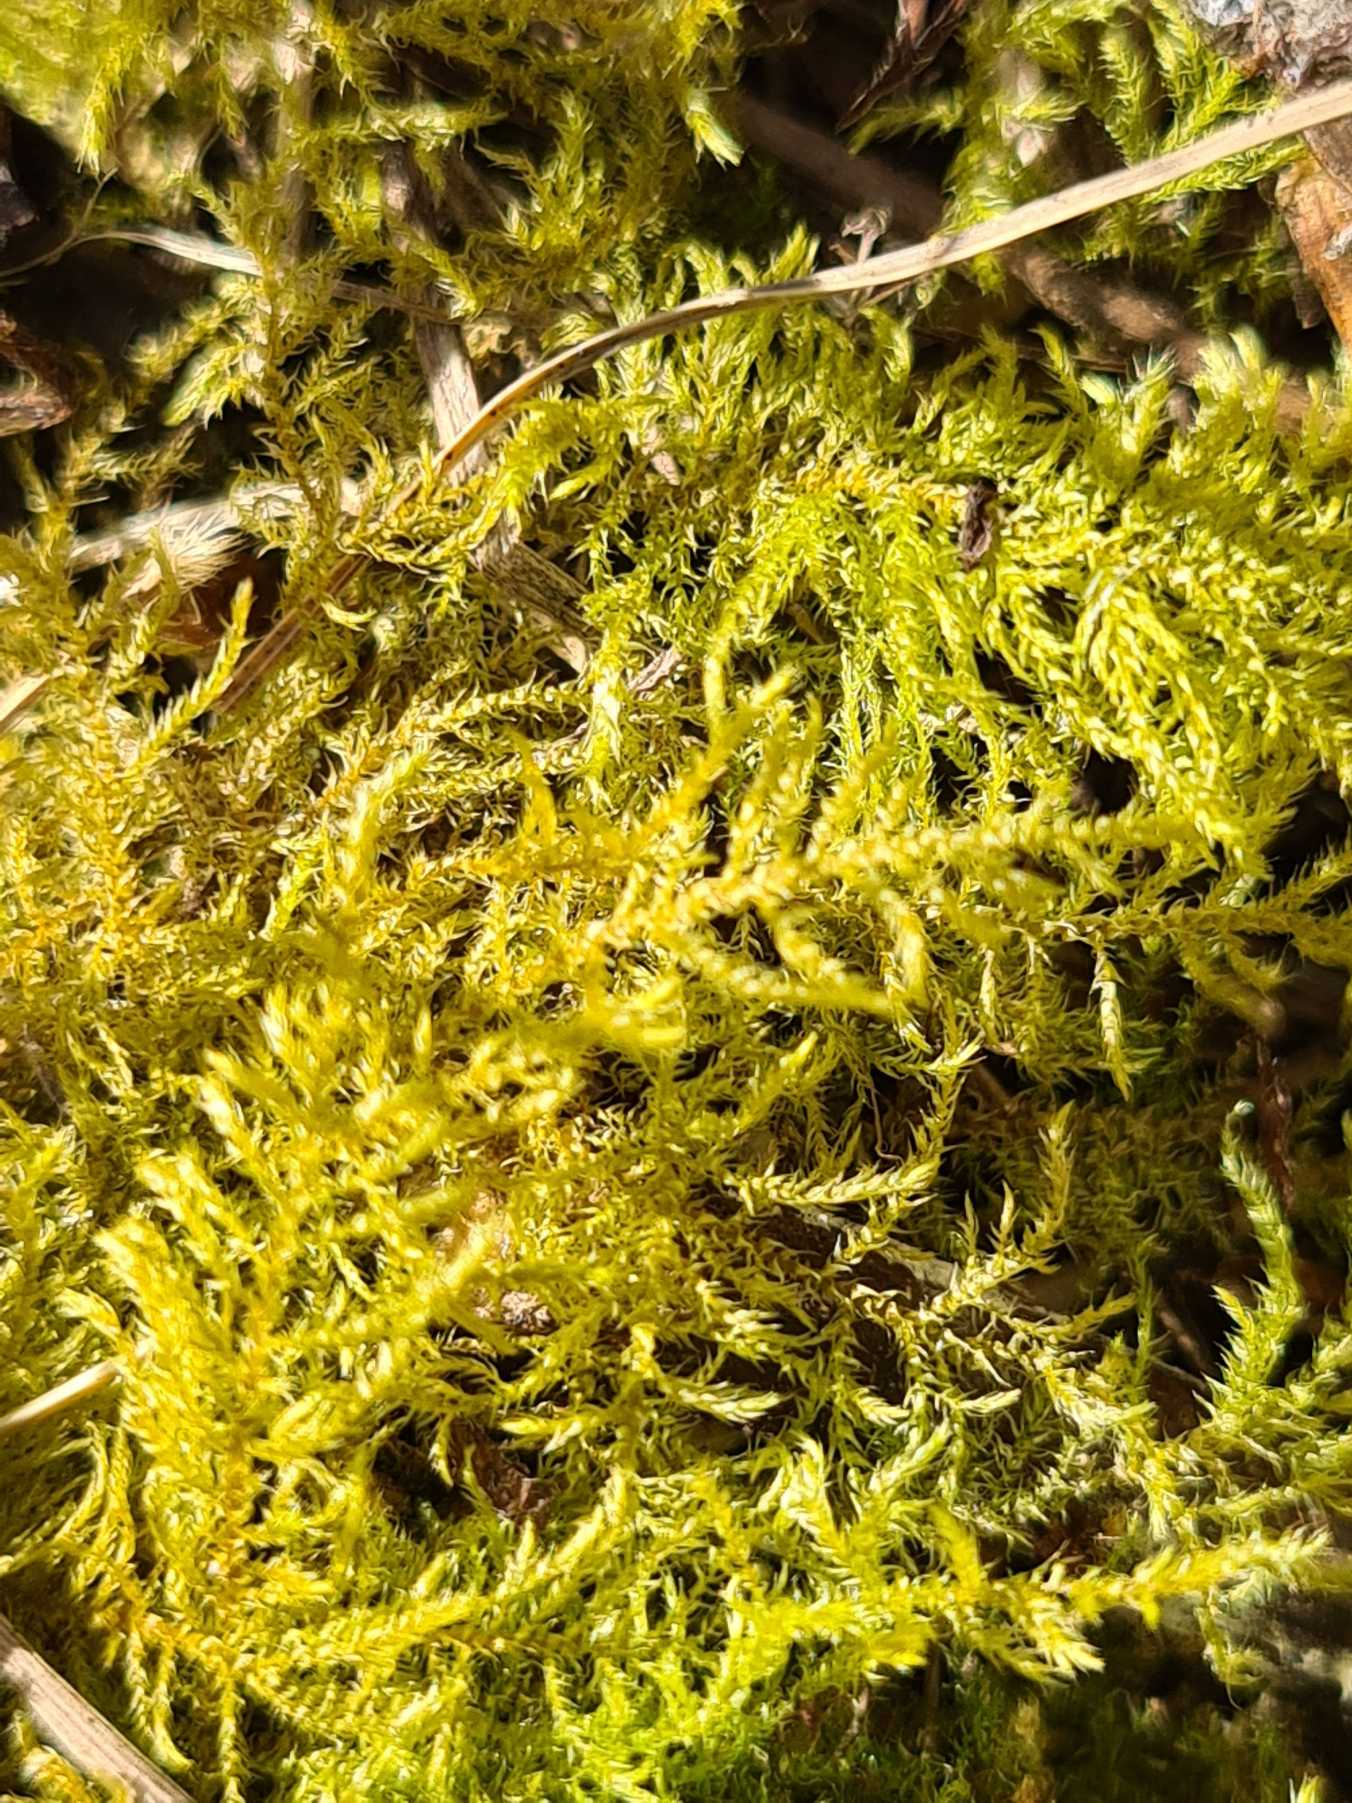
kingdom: Plantae
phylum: Bryophyta
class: Bryopsida
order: Hypnales
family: Brachytheciaceae
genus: Kindbergia
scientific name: Kindbergia praelonga
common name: Forskelligbladet vortetand
